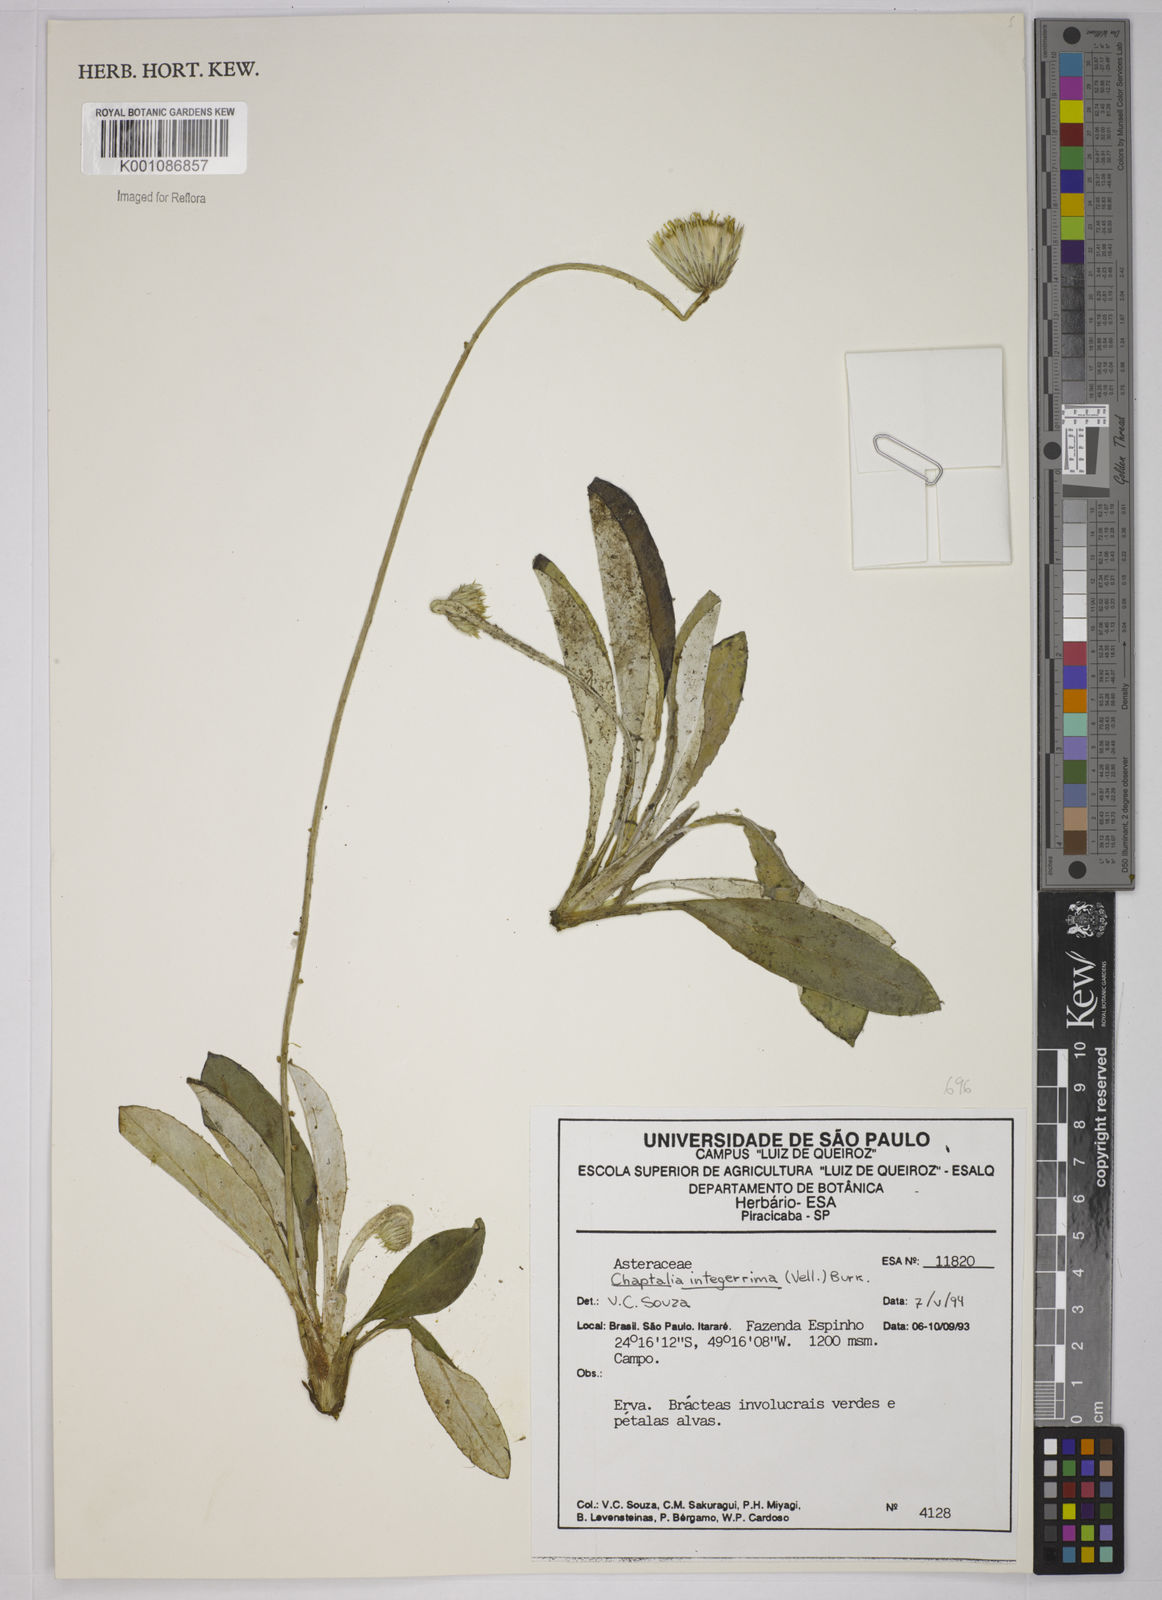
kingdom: Plantae
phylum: Tracheophyta
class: Magnoliopsida
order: Asterales
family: Asteraceae
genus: Chaptalia
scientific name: Chaptalia integerrima
